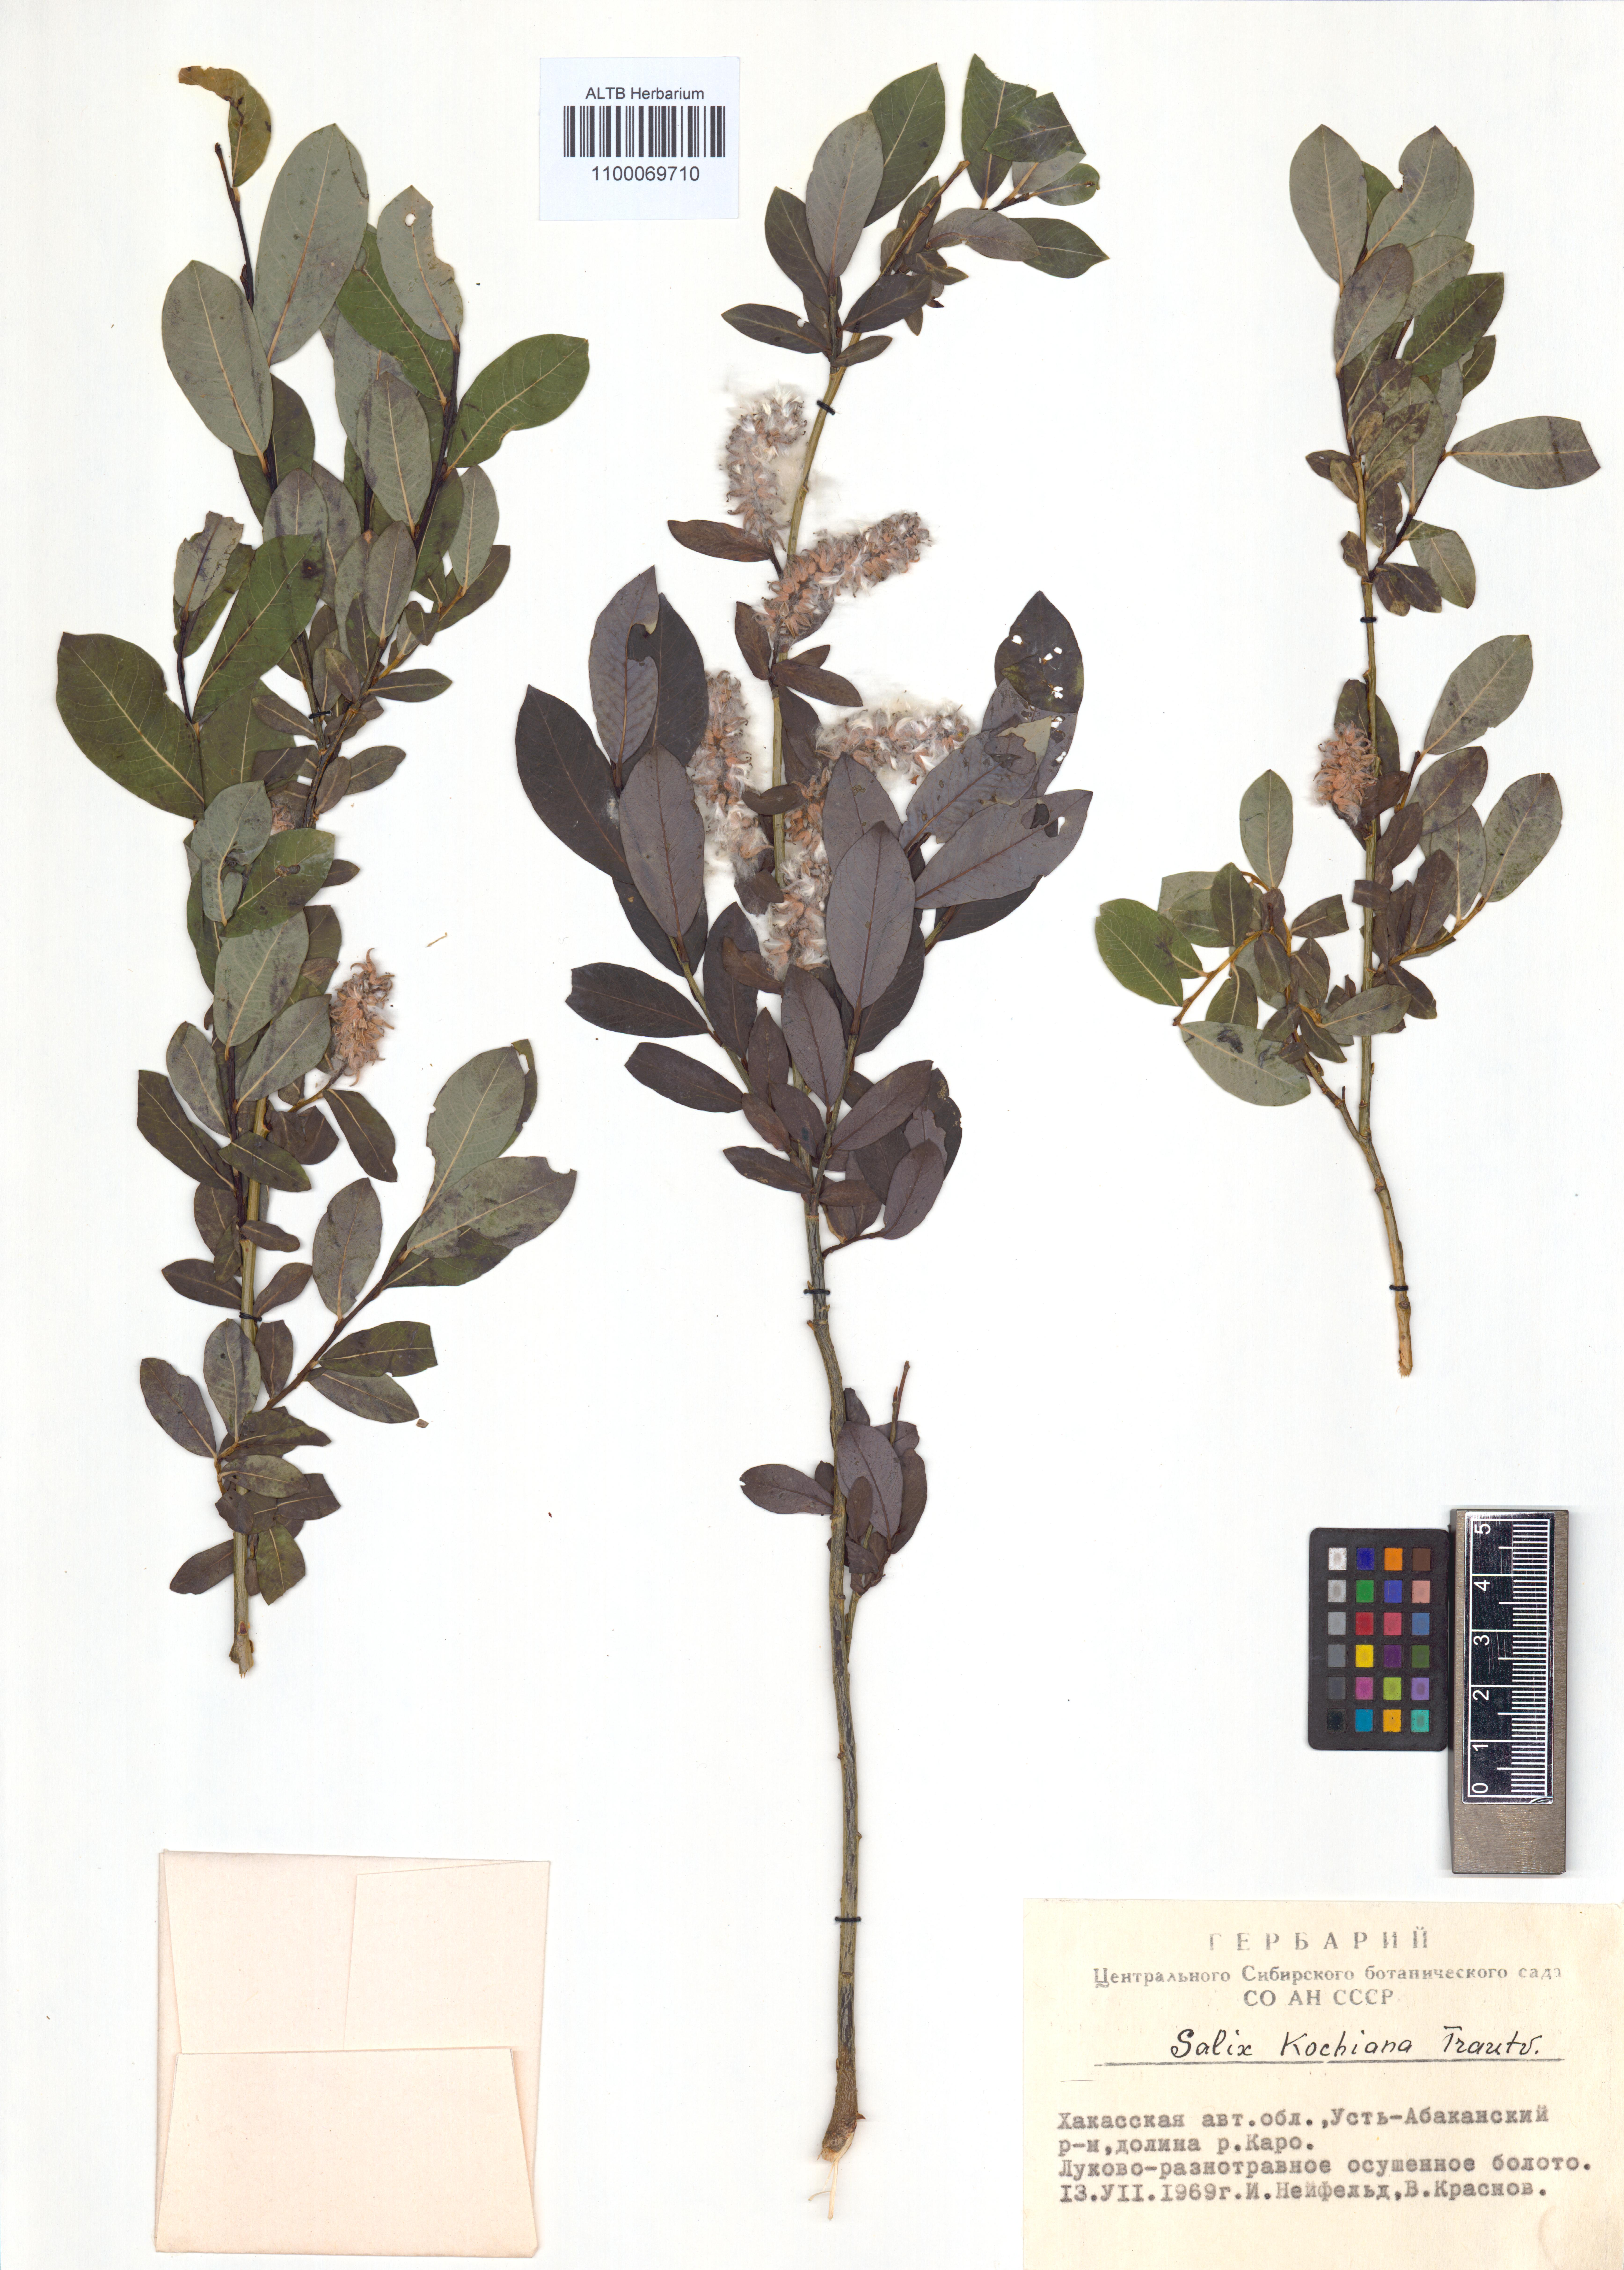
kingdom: Plantae
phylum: Tracheophyta
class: Magnoliopsida
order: Malpighiales
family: Salicaceae
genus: Salix
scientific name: Salix kochiana
